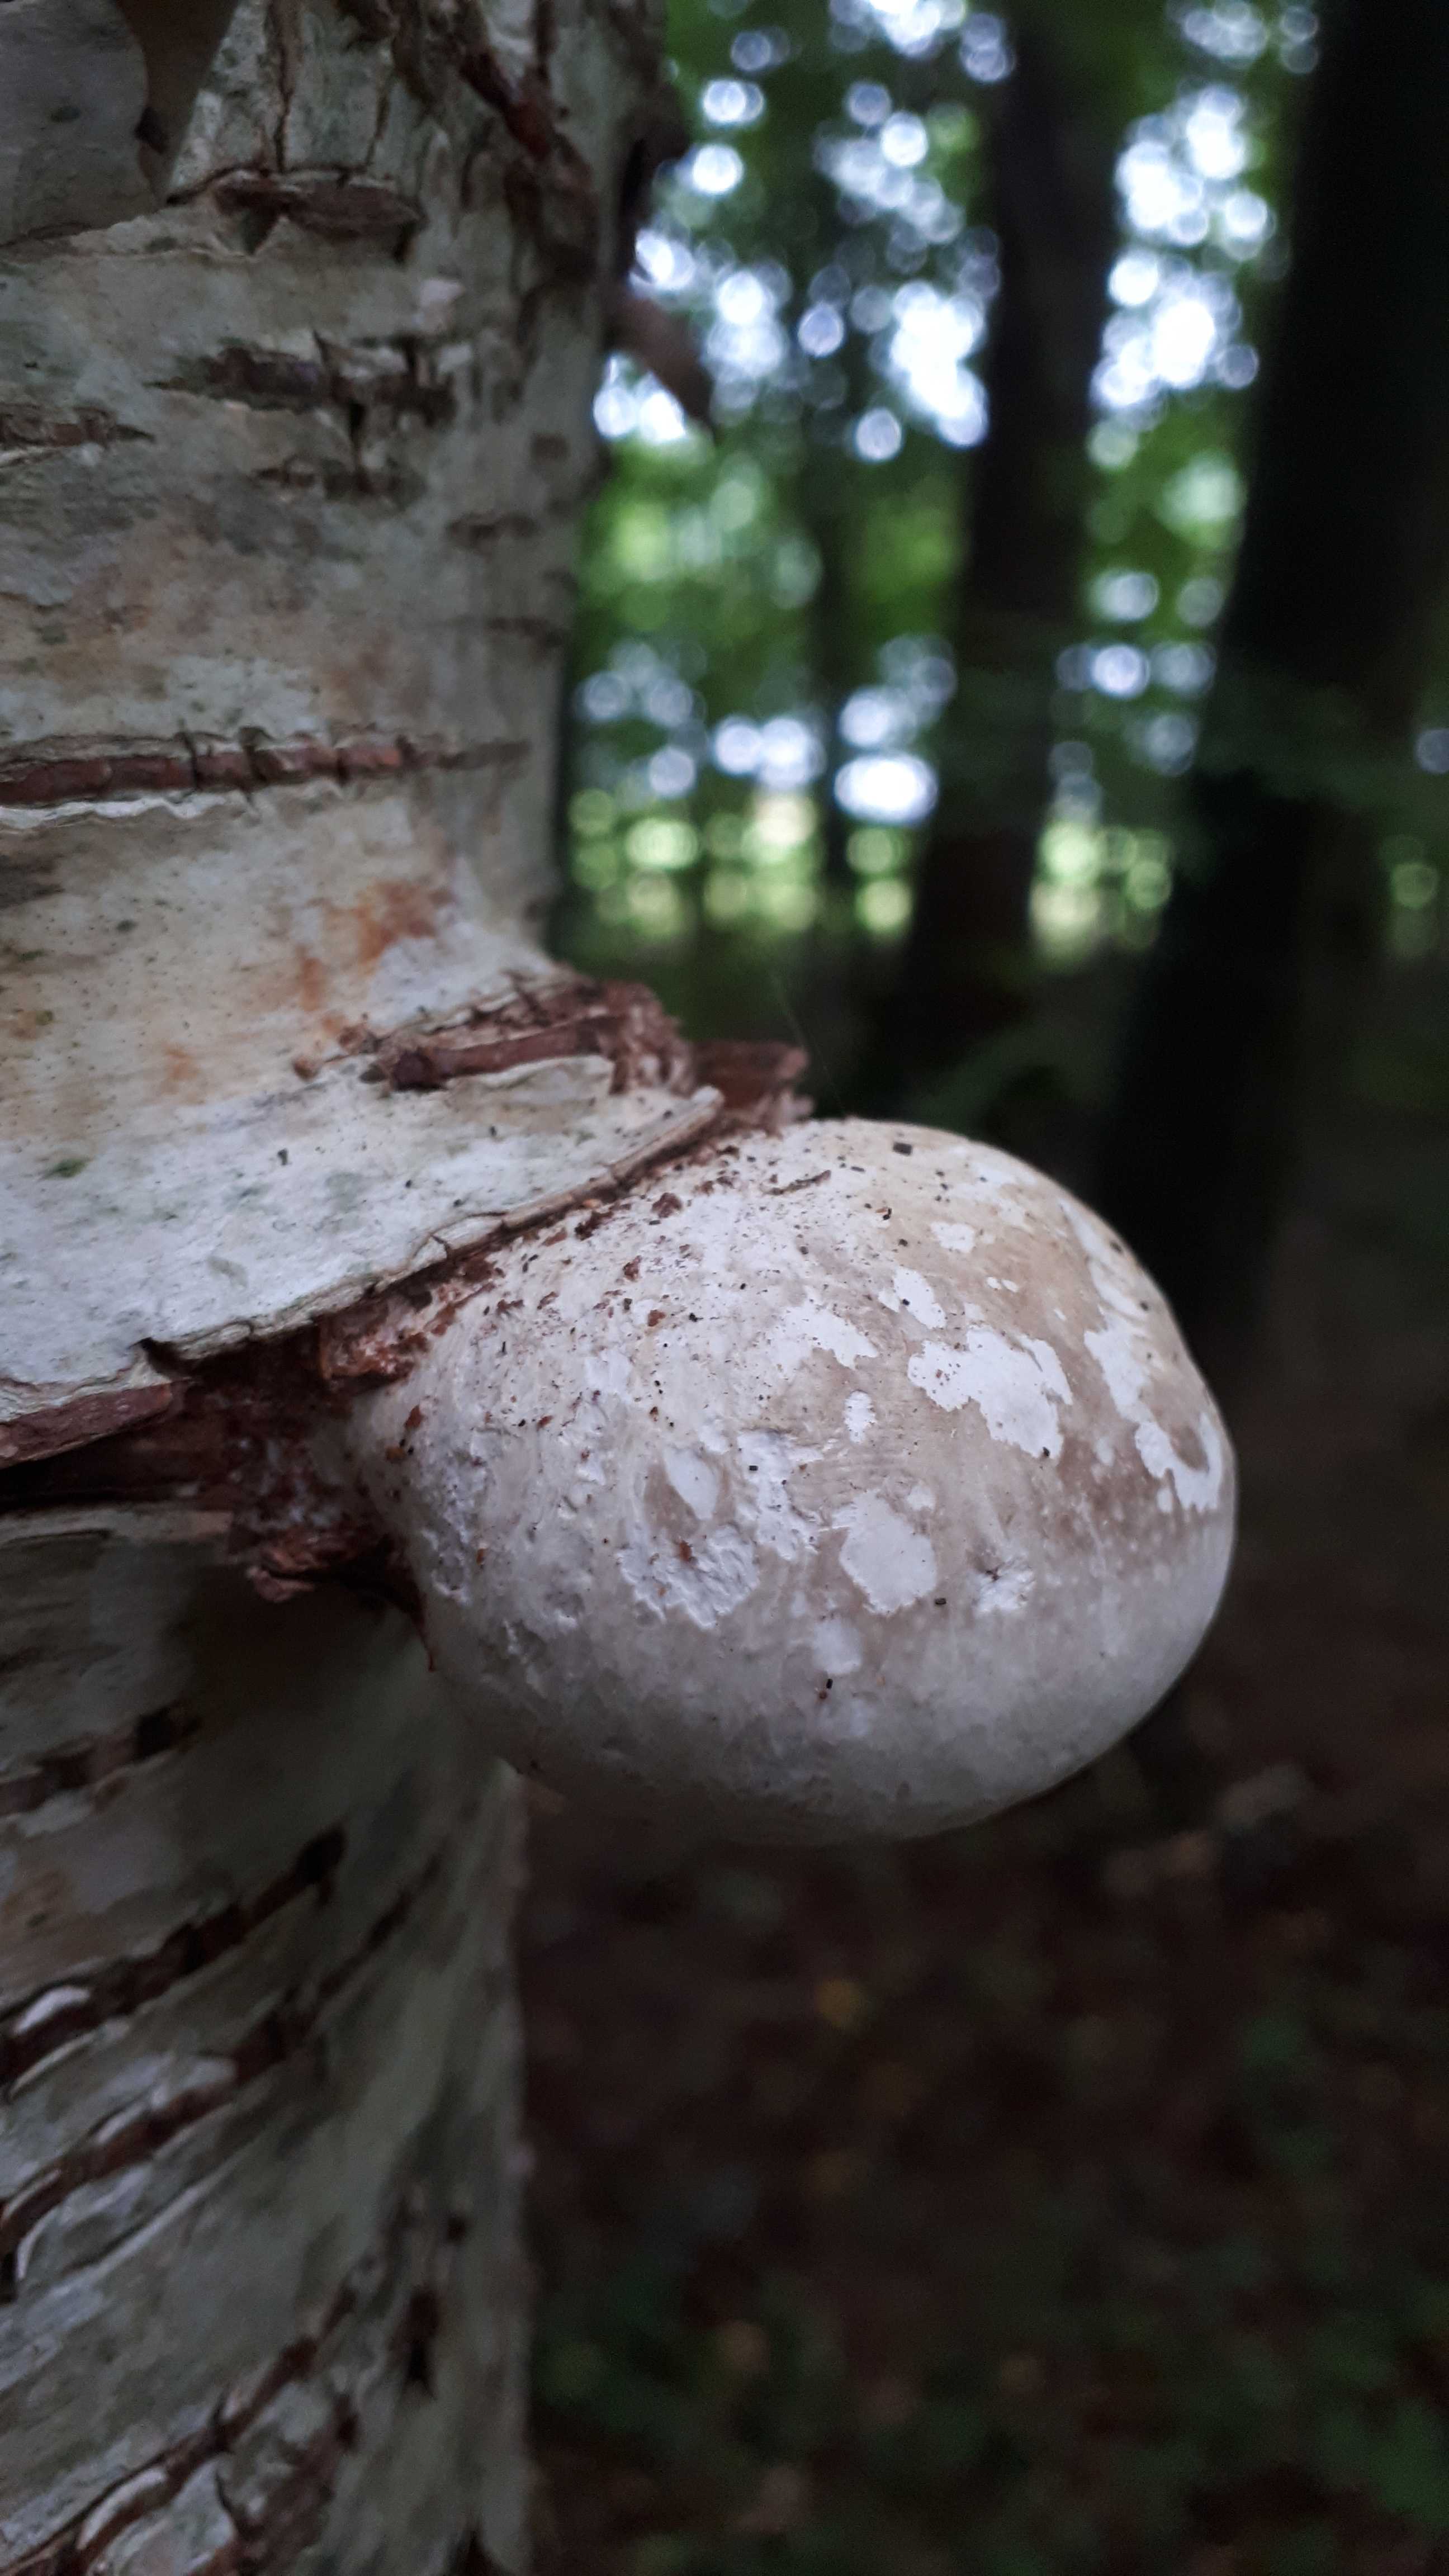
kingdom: Fungi
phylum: Basidiomycota
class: Agaricomycetes
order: Polyporales
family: Fomitopsidaceae
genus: Fomitopsis
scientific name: Fomitopsis betulina
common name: birkeporesvamp
